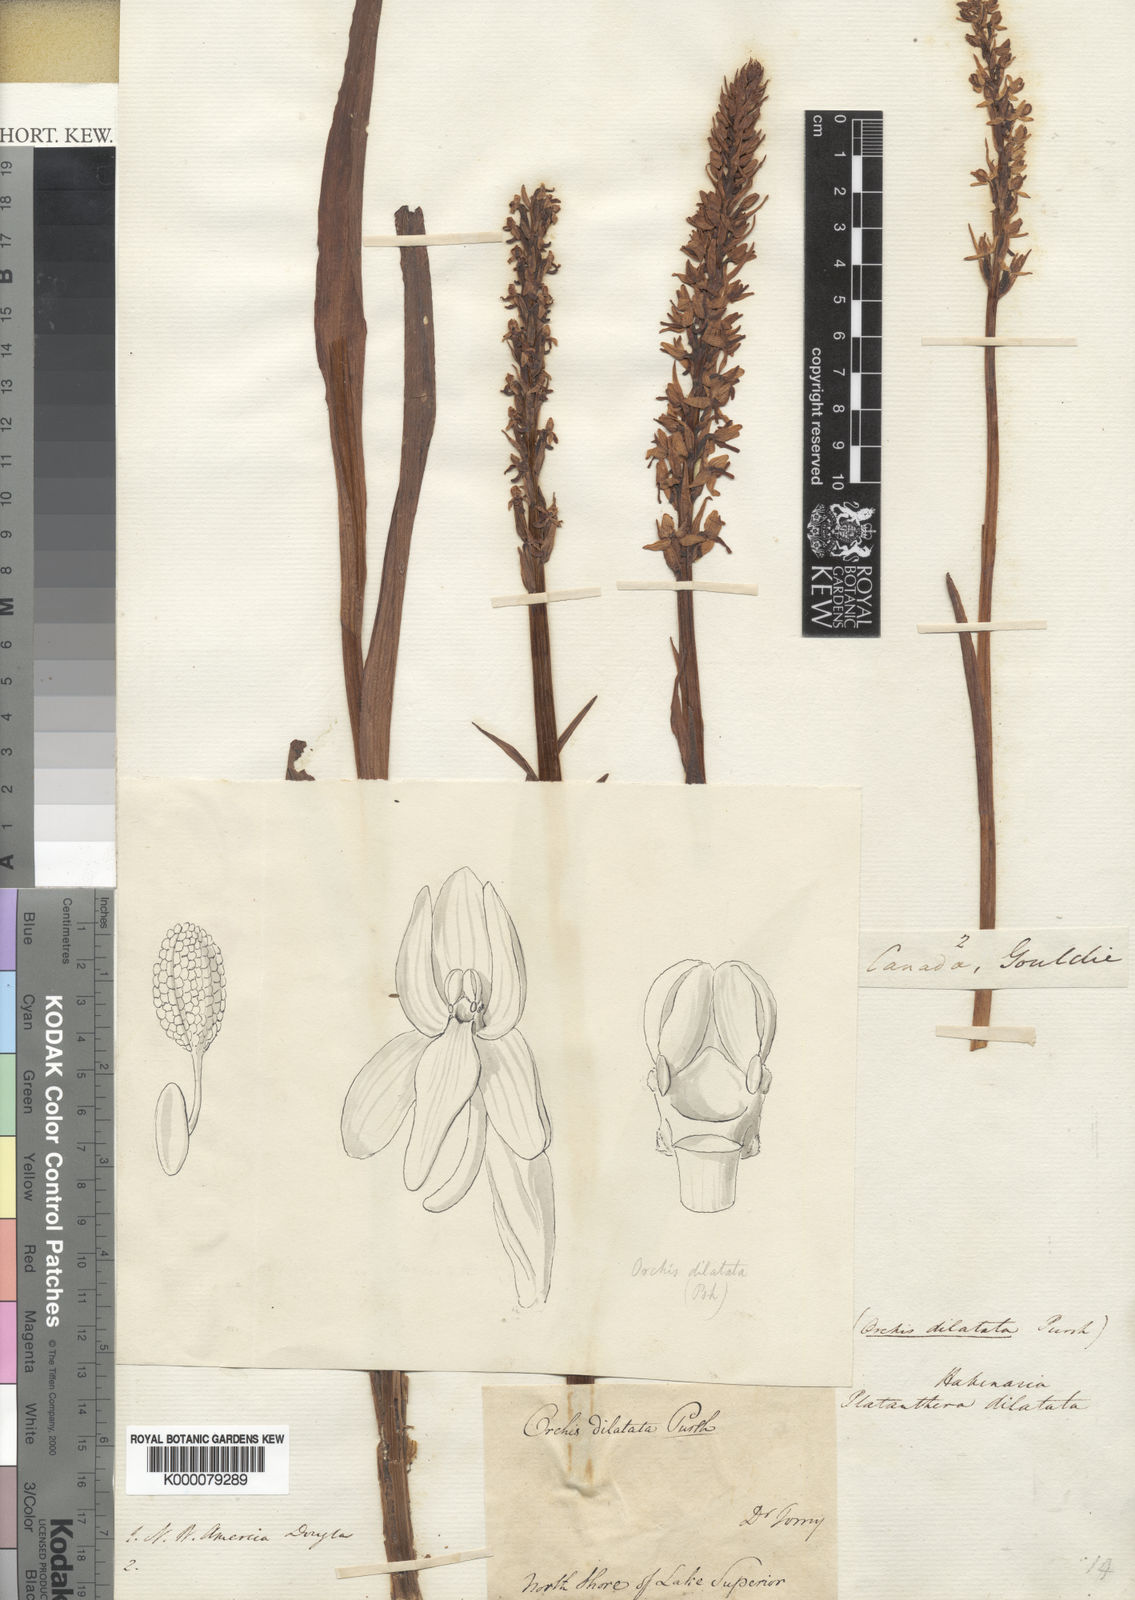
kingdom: Plantae
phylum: Tracheophyta
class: Liliopsida
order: Asparagales
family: Orchidaceae
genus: Platanthera
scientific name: Platanthera dilatata
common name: Bog candles
